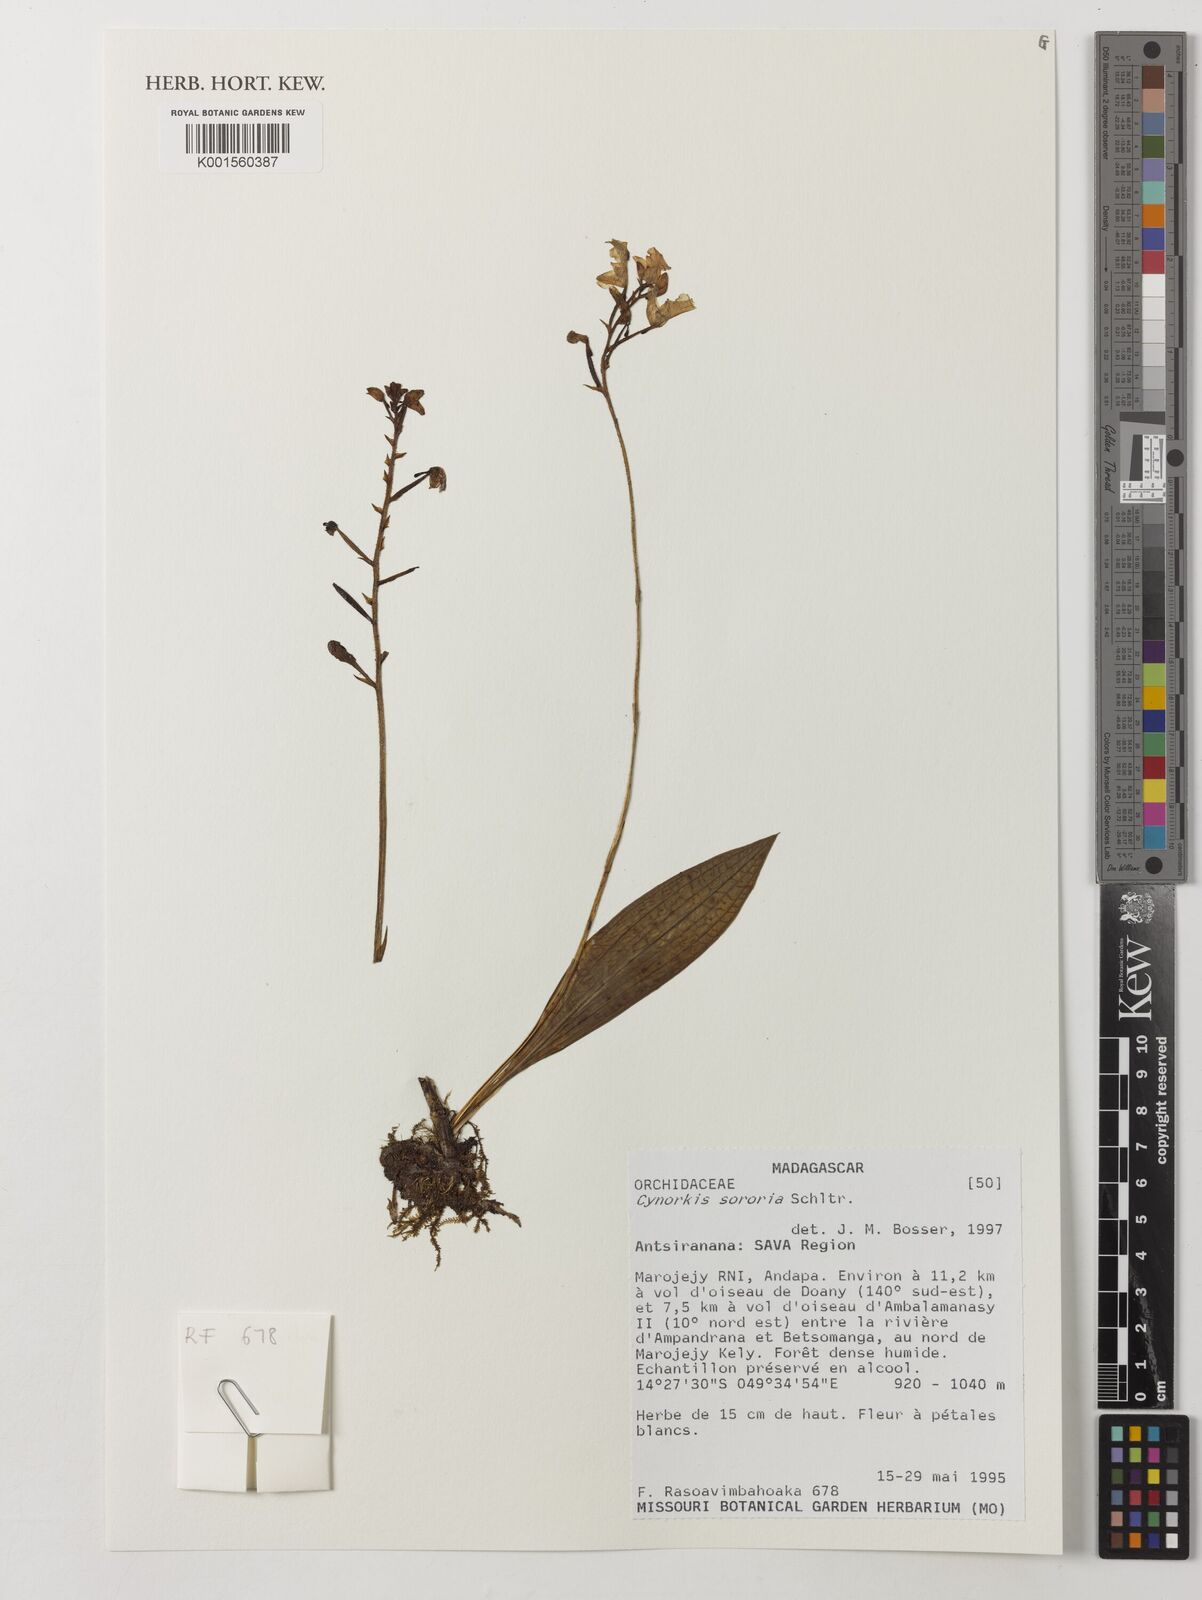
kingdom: Plantae
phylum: Tracheophyta
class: Liliopsida
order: Asparagales
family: Orchidaceae
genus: Cynorkis
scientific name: Cynorkis sororia
